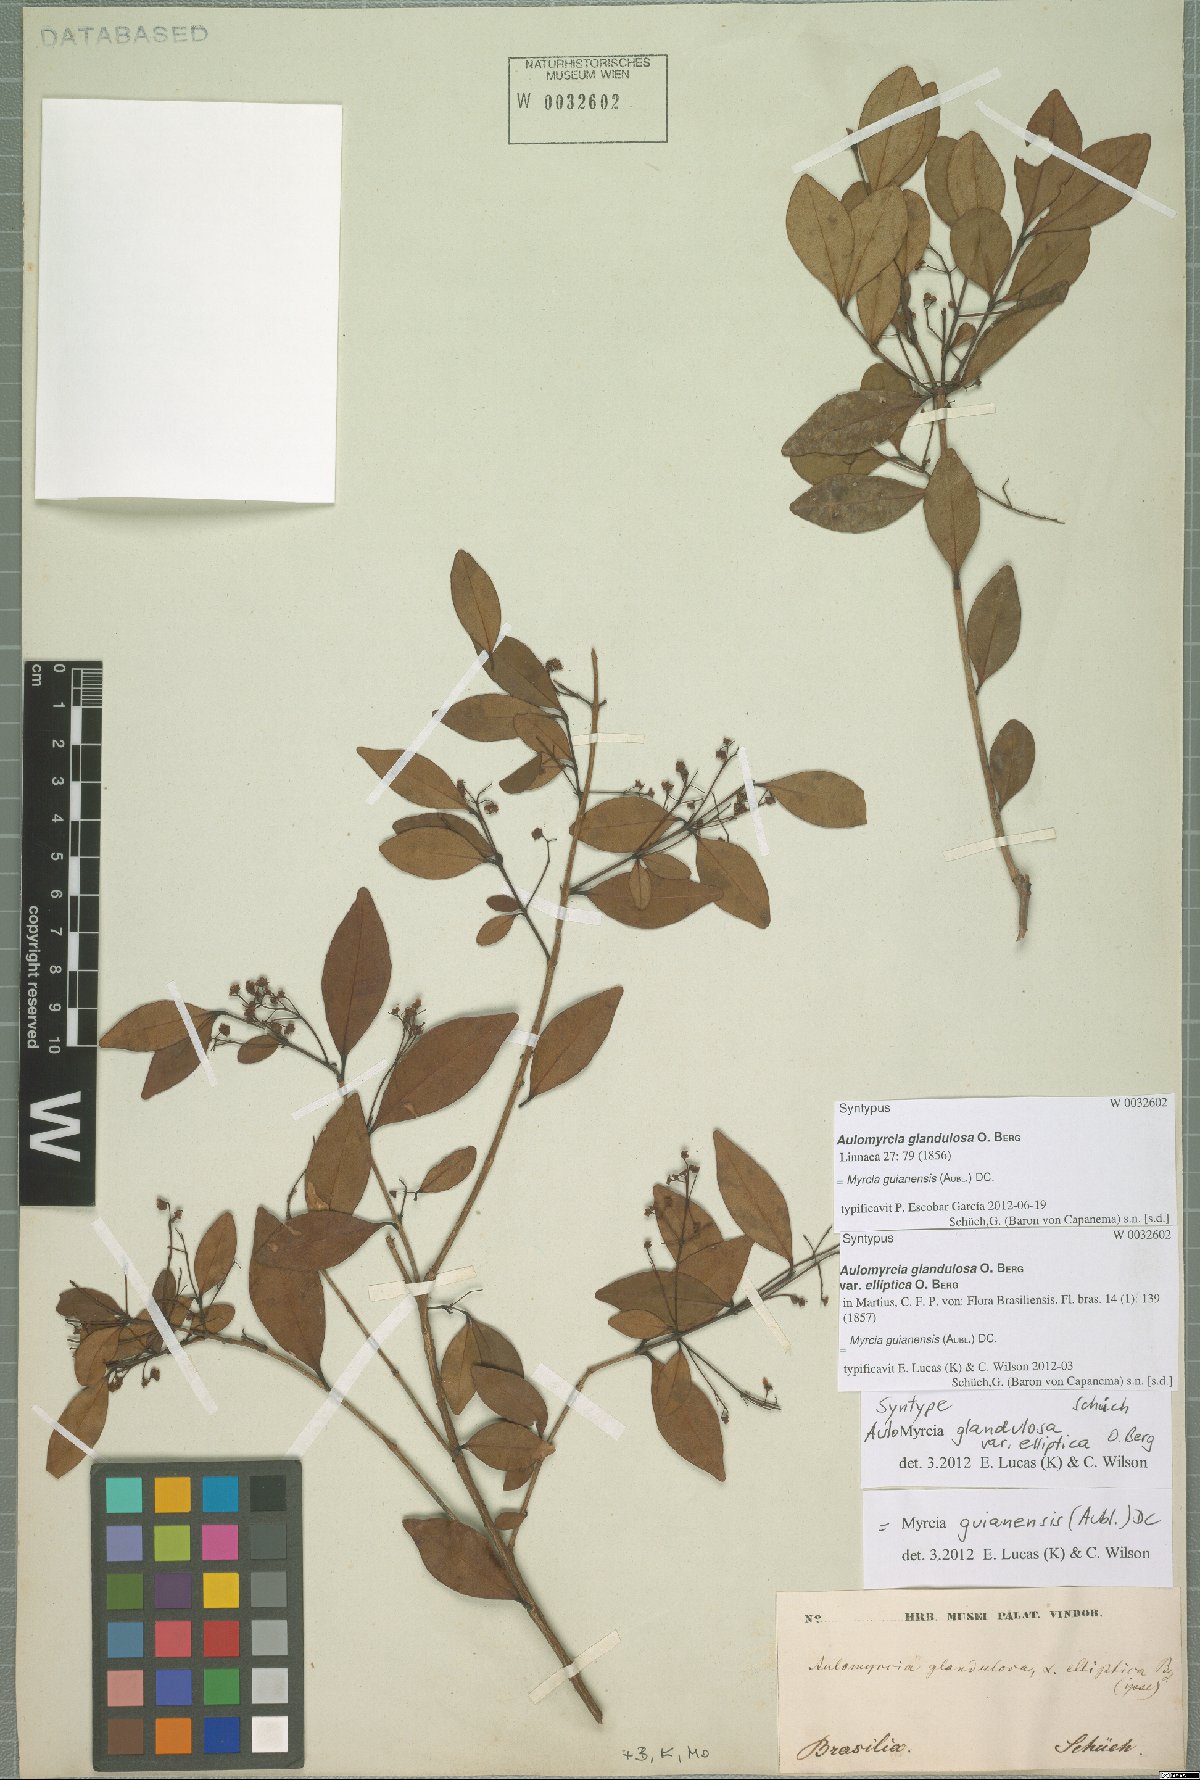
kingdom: Plantae
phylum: Tracheophyta
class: Magnoliopsida
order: Myrtales
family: Myrtaceae
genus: Myrcia
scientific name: Myrcia guianensis
